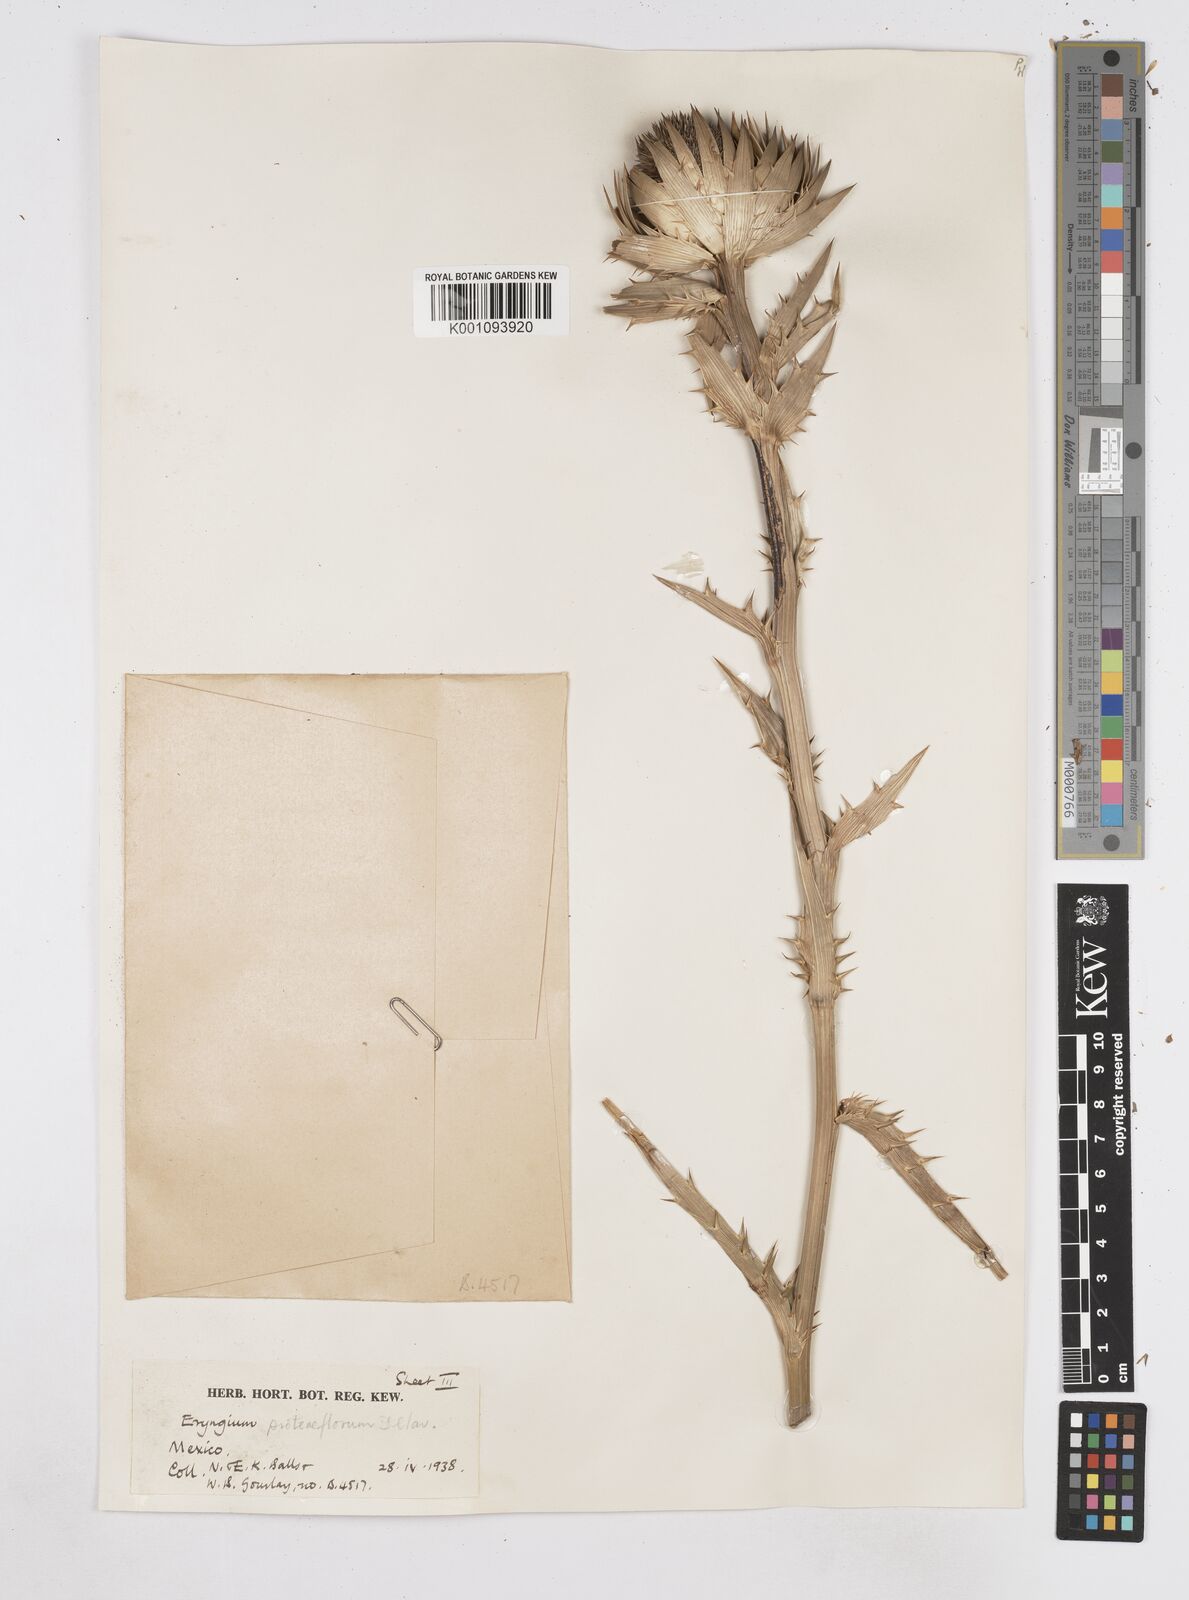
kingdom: Plantae
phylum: Tracheophyta
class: Magnoliopsida
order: Apiales
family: Apiaceae
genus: Eryngium
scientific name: Eryngium proteiflorum
